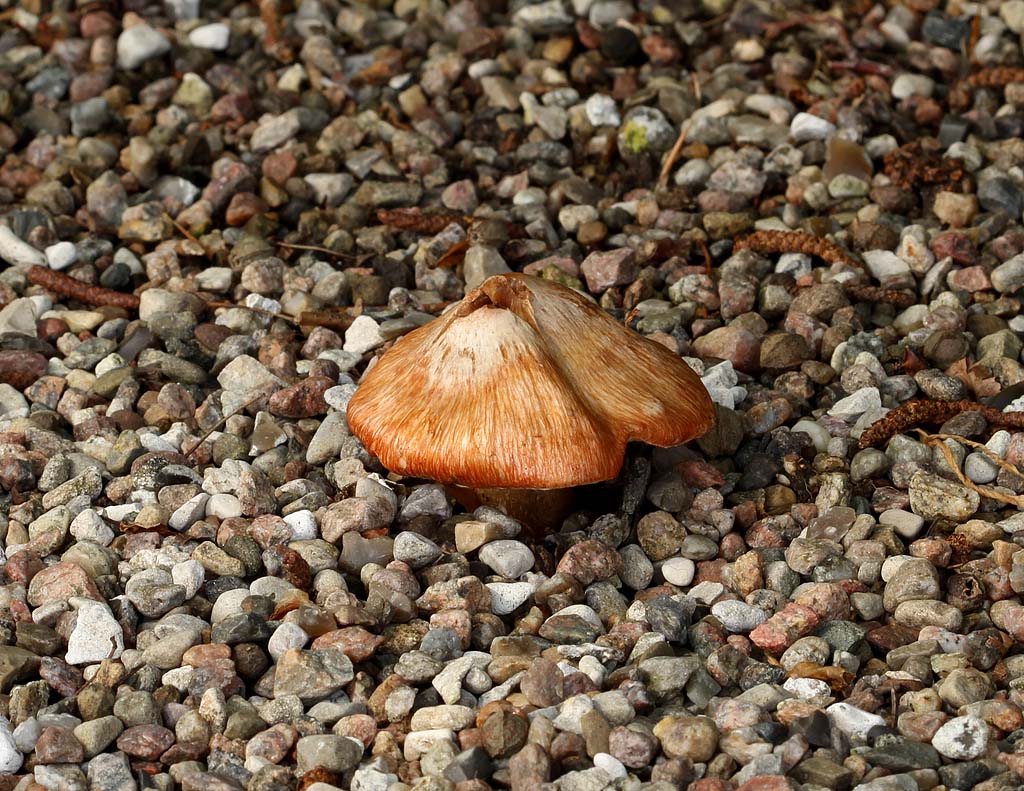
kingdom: Fungi
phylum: Basidiomycota
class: Agaricomycetes
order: Agaricales
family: Inocybaceae
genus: Inosperma
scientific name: Inosperma erubescens
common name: giftig trævlhat
